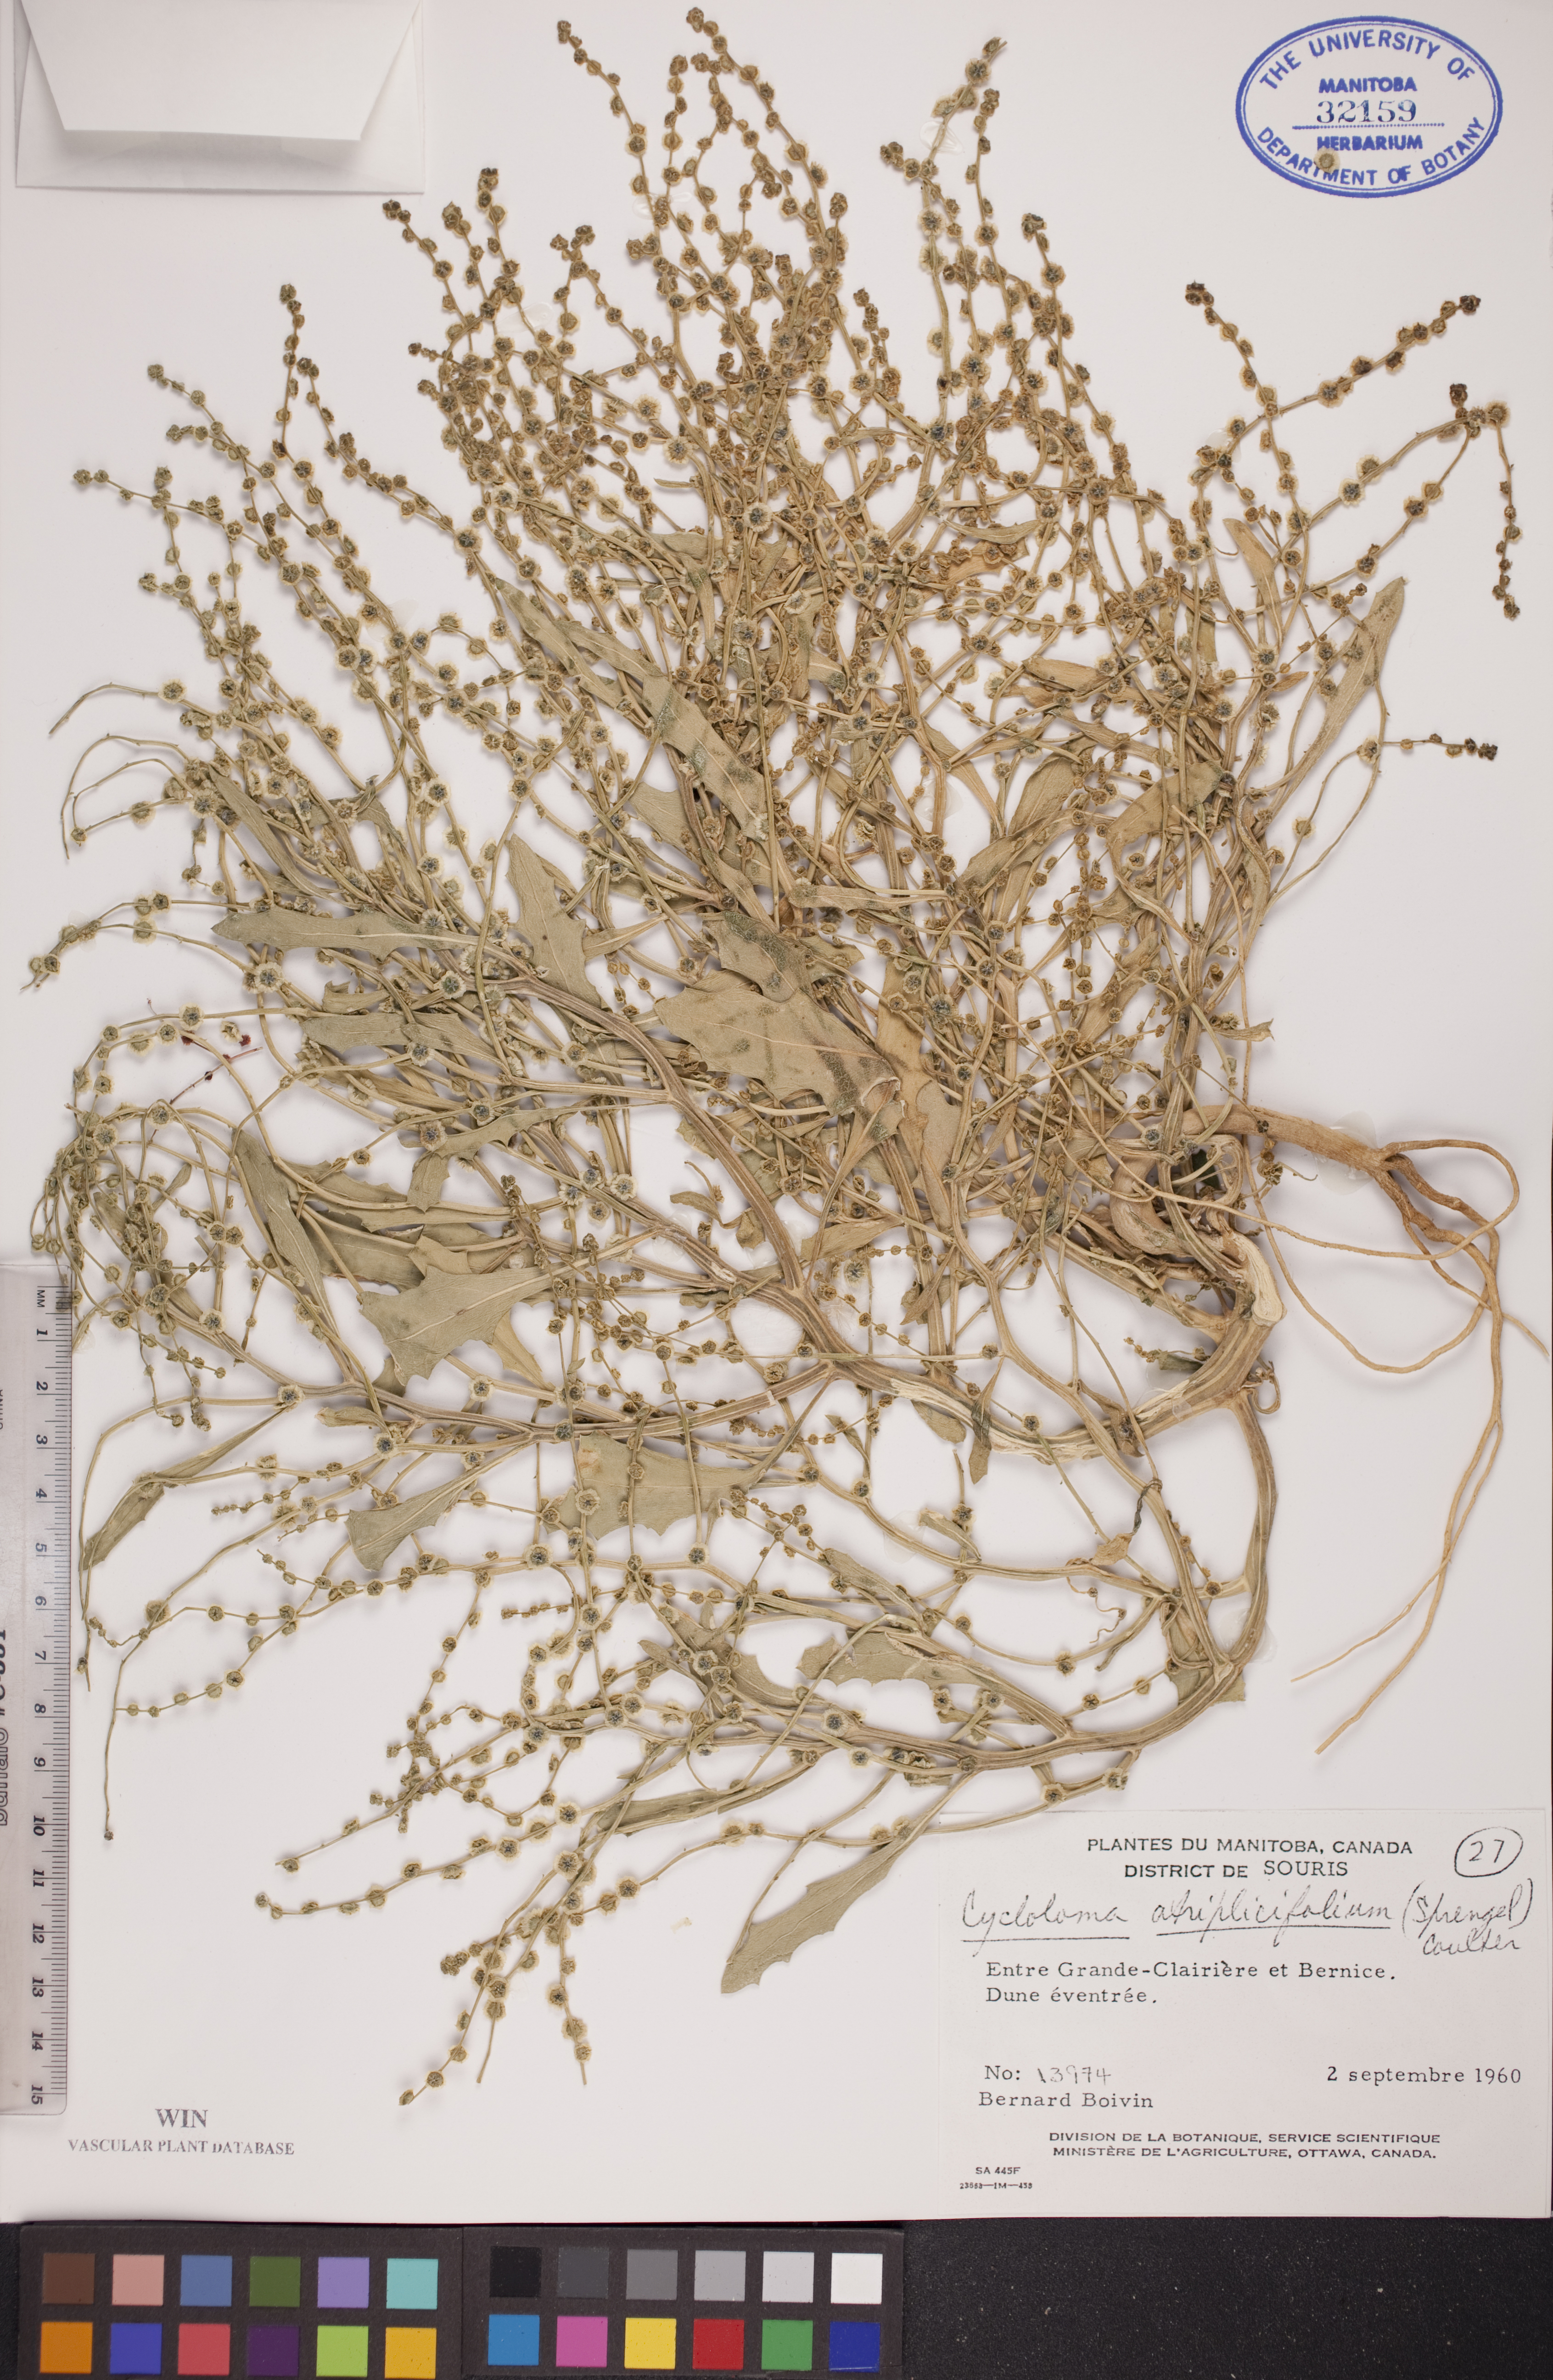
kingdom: Plantae
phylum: Tracheophyta
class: Magnoliopsida
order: Caryophyllales
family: Amaranthaceae
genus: Dysphania
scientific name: Dysphania atriplicifolia
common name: Plains tumbleweed
